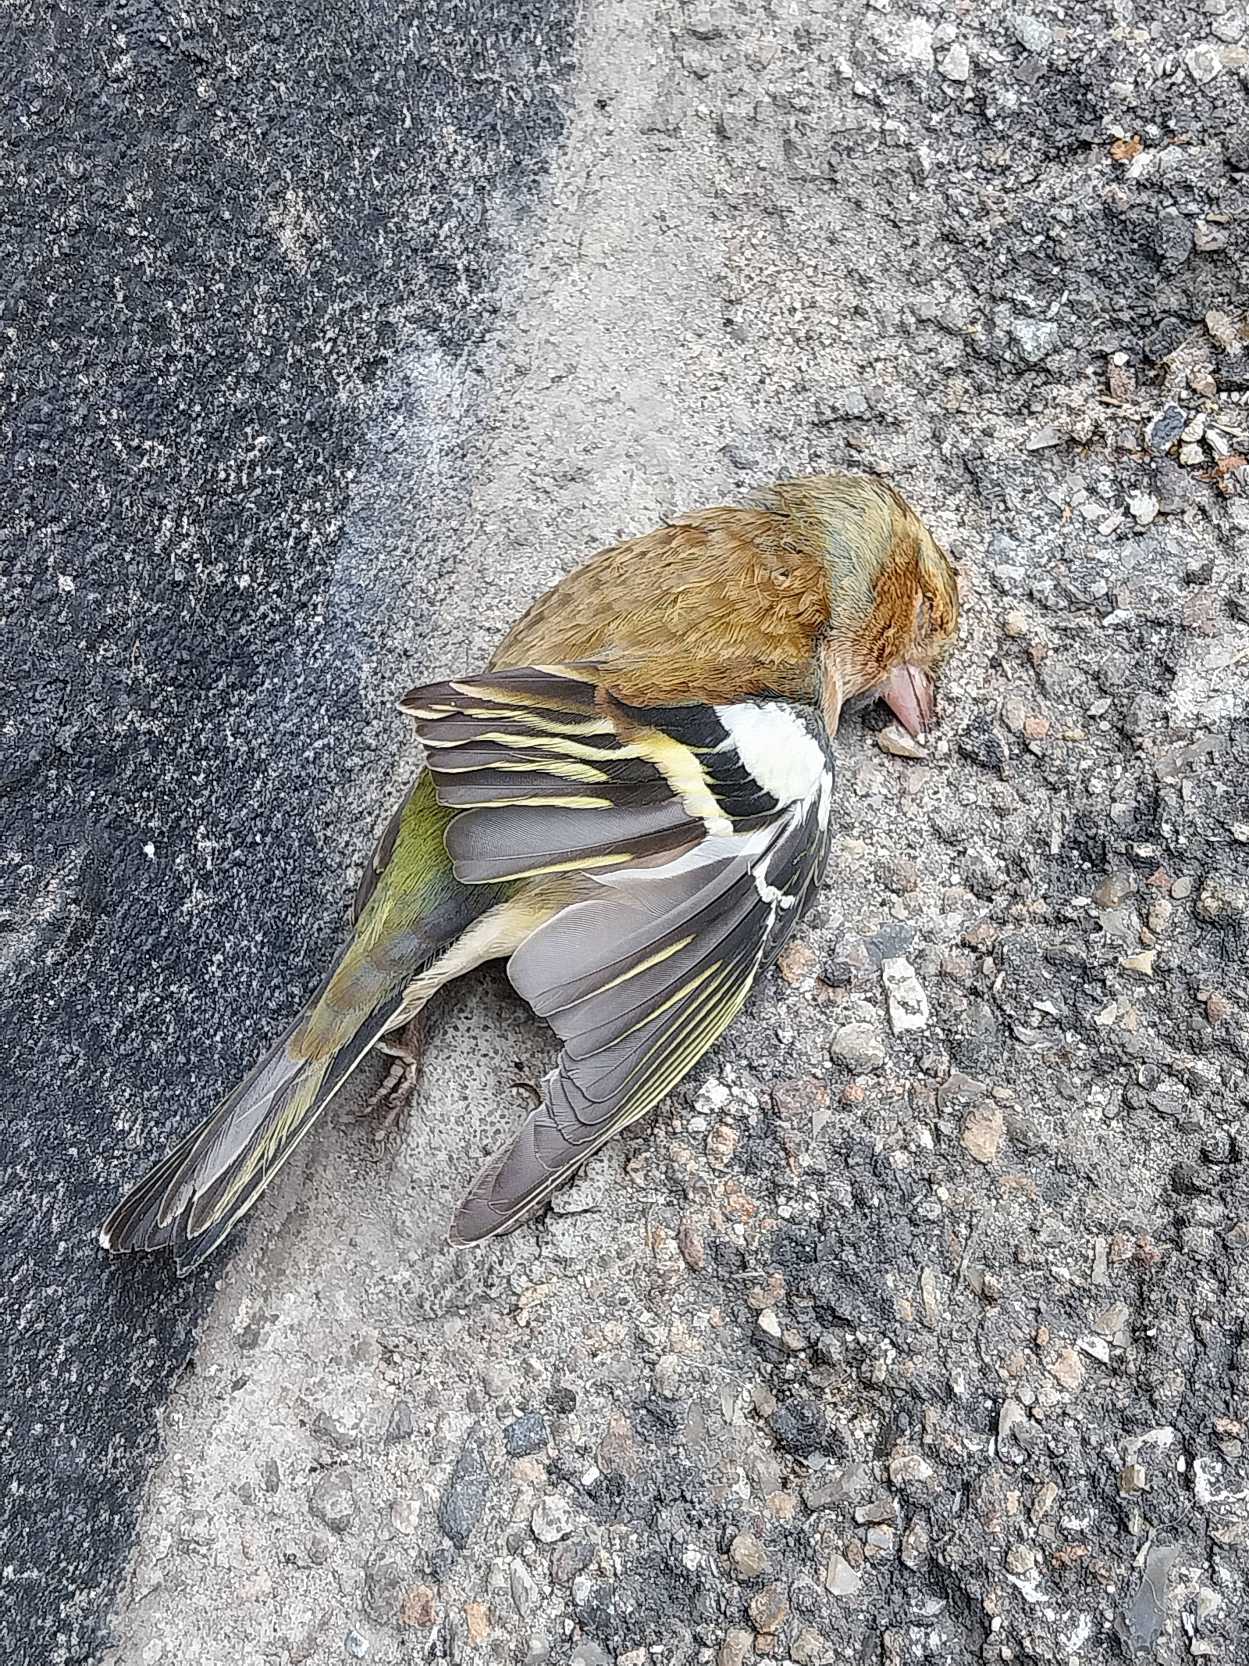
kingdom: Animalia
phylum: Chordata
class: Aves
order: Passeriformes
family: Fringillidae
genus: Fringilla
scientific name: Fringilla coelebs
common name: Bogfinke
